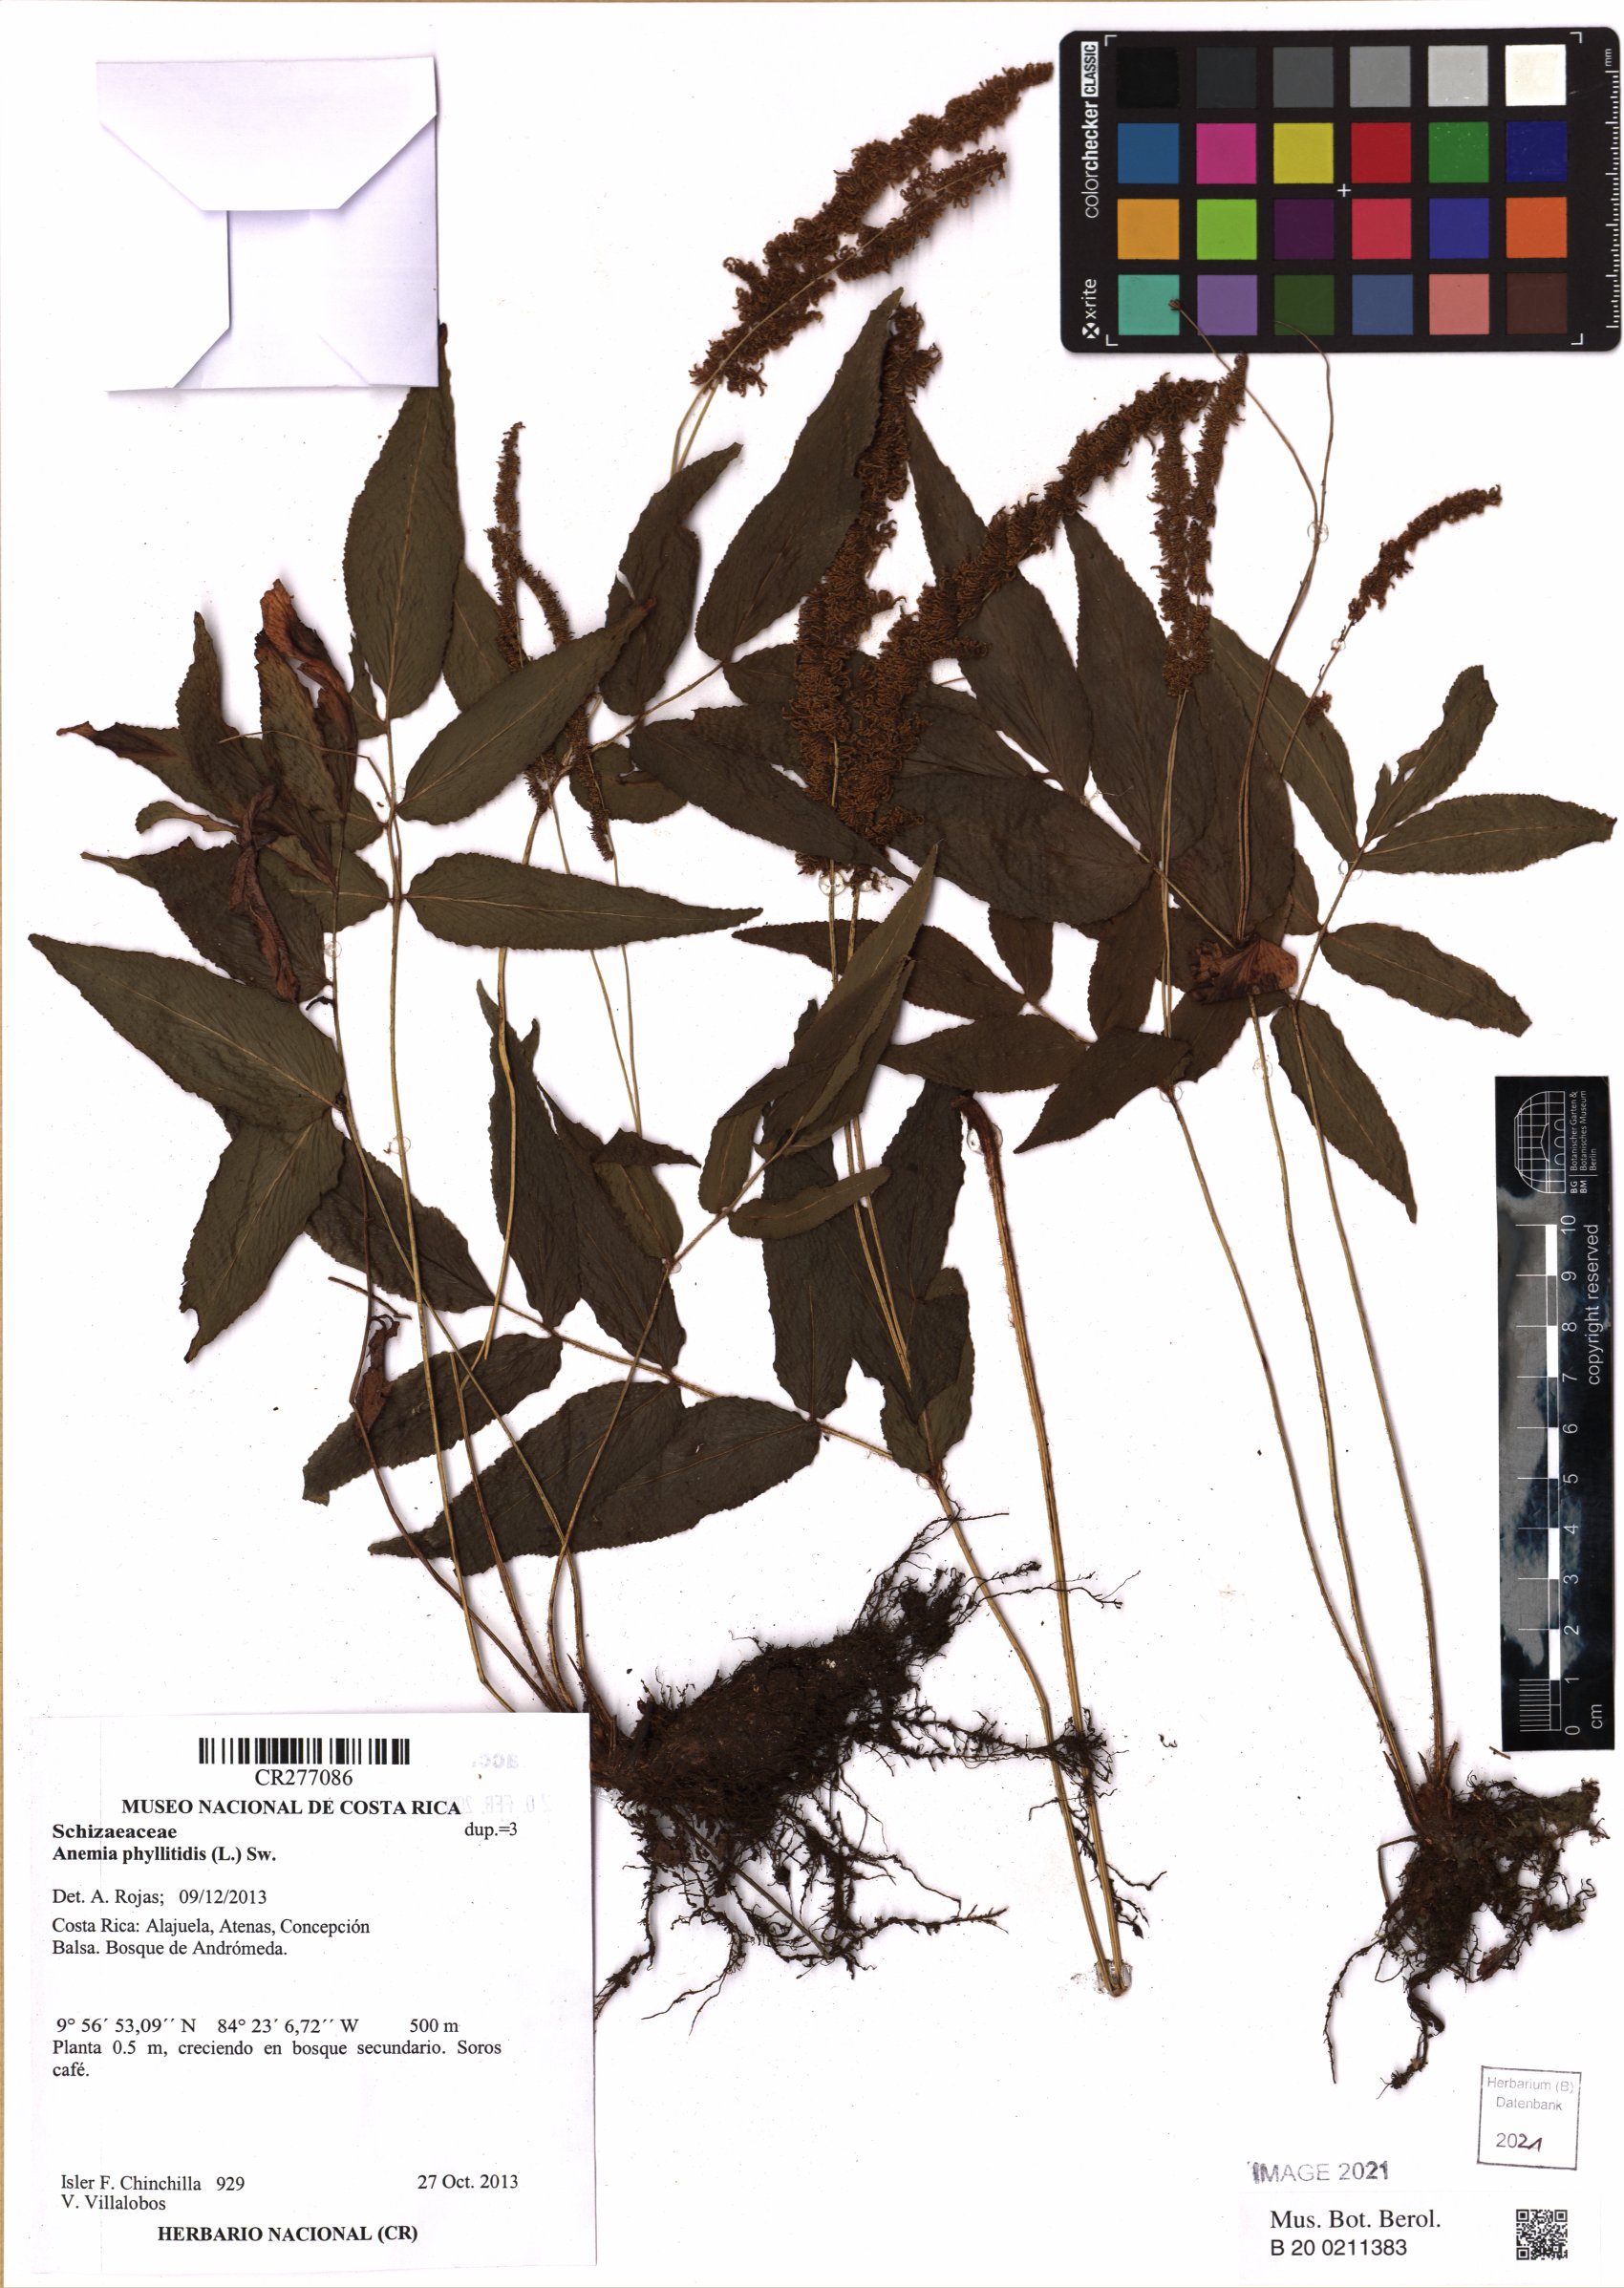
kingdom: Plantae
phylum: Tracheophyta
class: Polypodiopsida
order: Schizaeales
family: Anemiaceae
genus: Anemia
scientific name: Anemia phyllitidis
